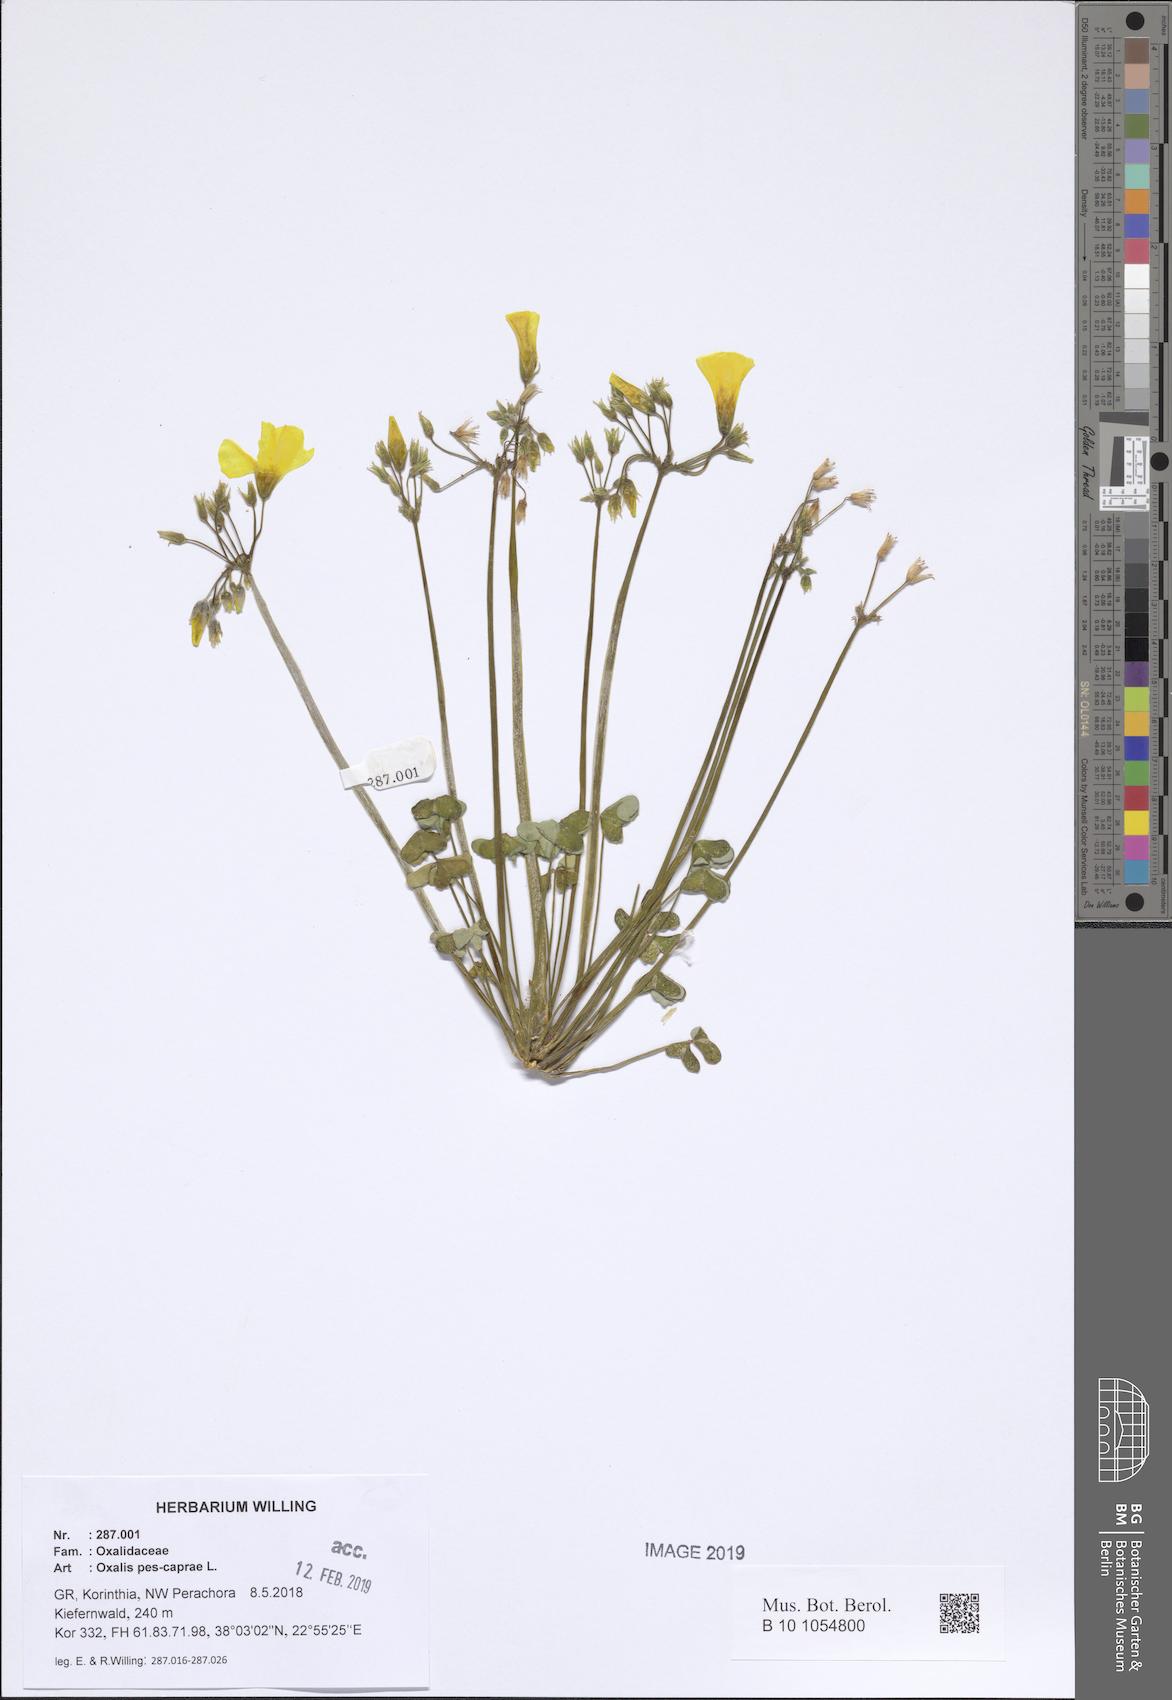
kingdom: Plantae
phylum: Tracheophyta
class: Magnoliopsida
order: Oxalidales
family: Oxalidaceae
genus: Oxalis
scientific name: Oxalis pes-caprae
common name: Bermuda-buttercup
